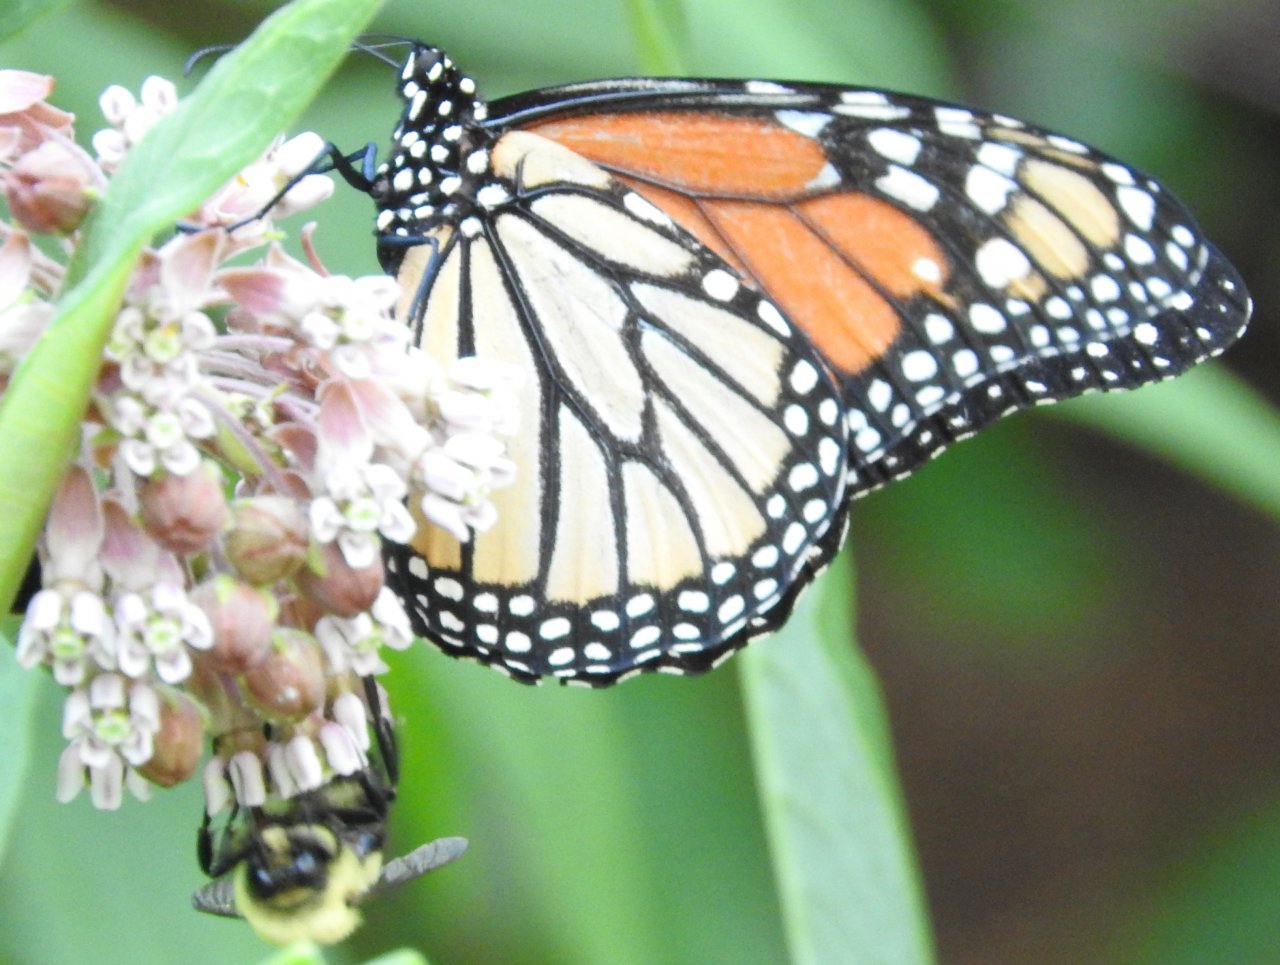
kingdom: Animalia
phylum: Arthropoda
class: Insecta
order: Lepidoptera
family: Nymphalidae
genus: Danaus
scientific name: Danaus plexippus
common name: Monarch
